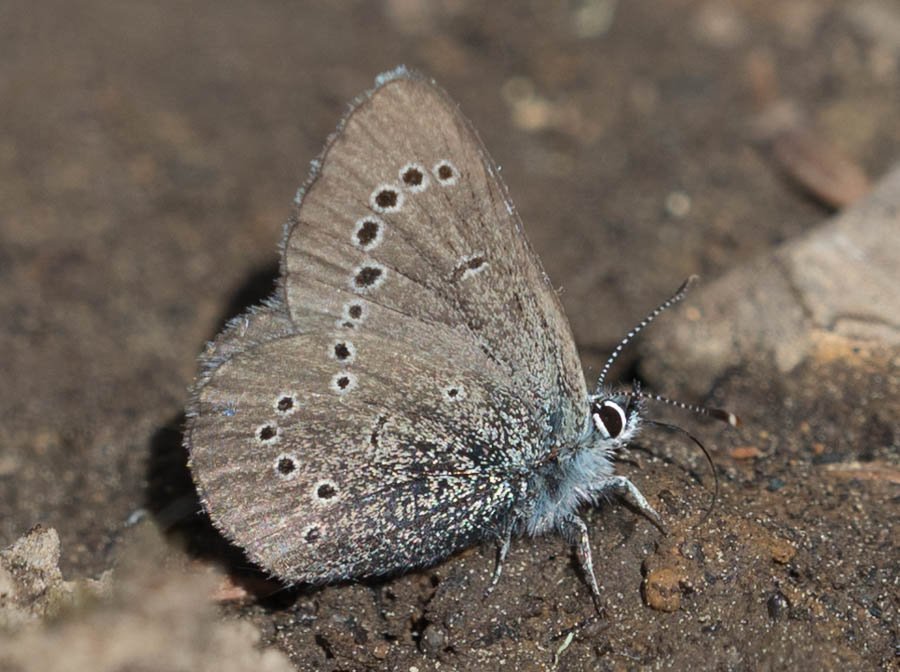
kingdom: Animalia
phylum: Arthropoda
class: Insecta
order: Lepidoptera
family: Lycaenidae
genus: Glaucopsyche
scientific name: Glaucopsyche lygdamus
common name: Silvery Blue
